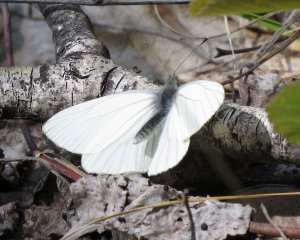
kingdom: Animalia
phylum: Arthropoda
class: Insecta
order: Lepidoptera
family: Pieridae
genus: Pieris
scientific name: Pieris oleracea
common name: Mustard White
